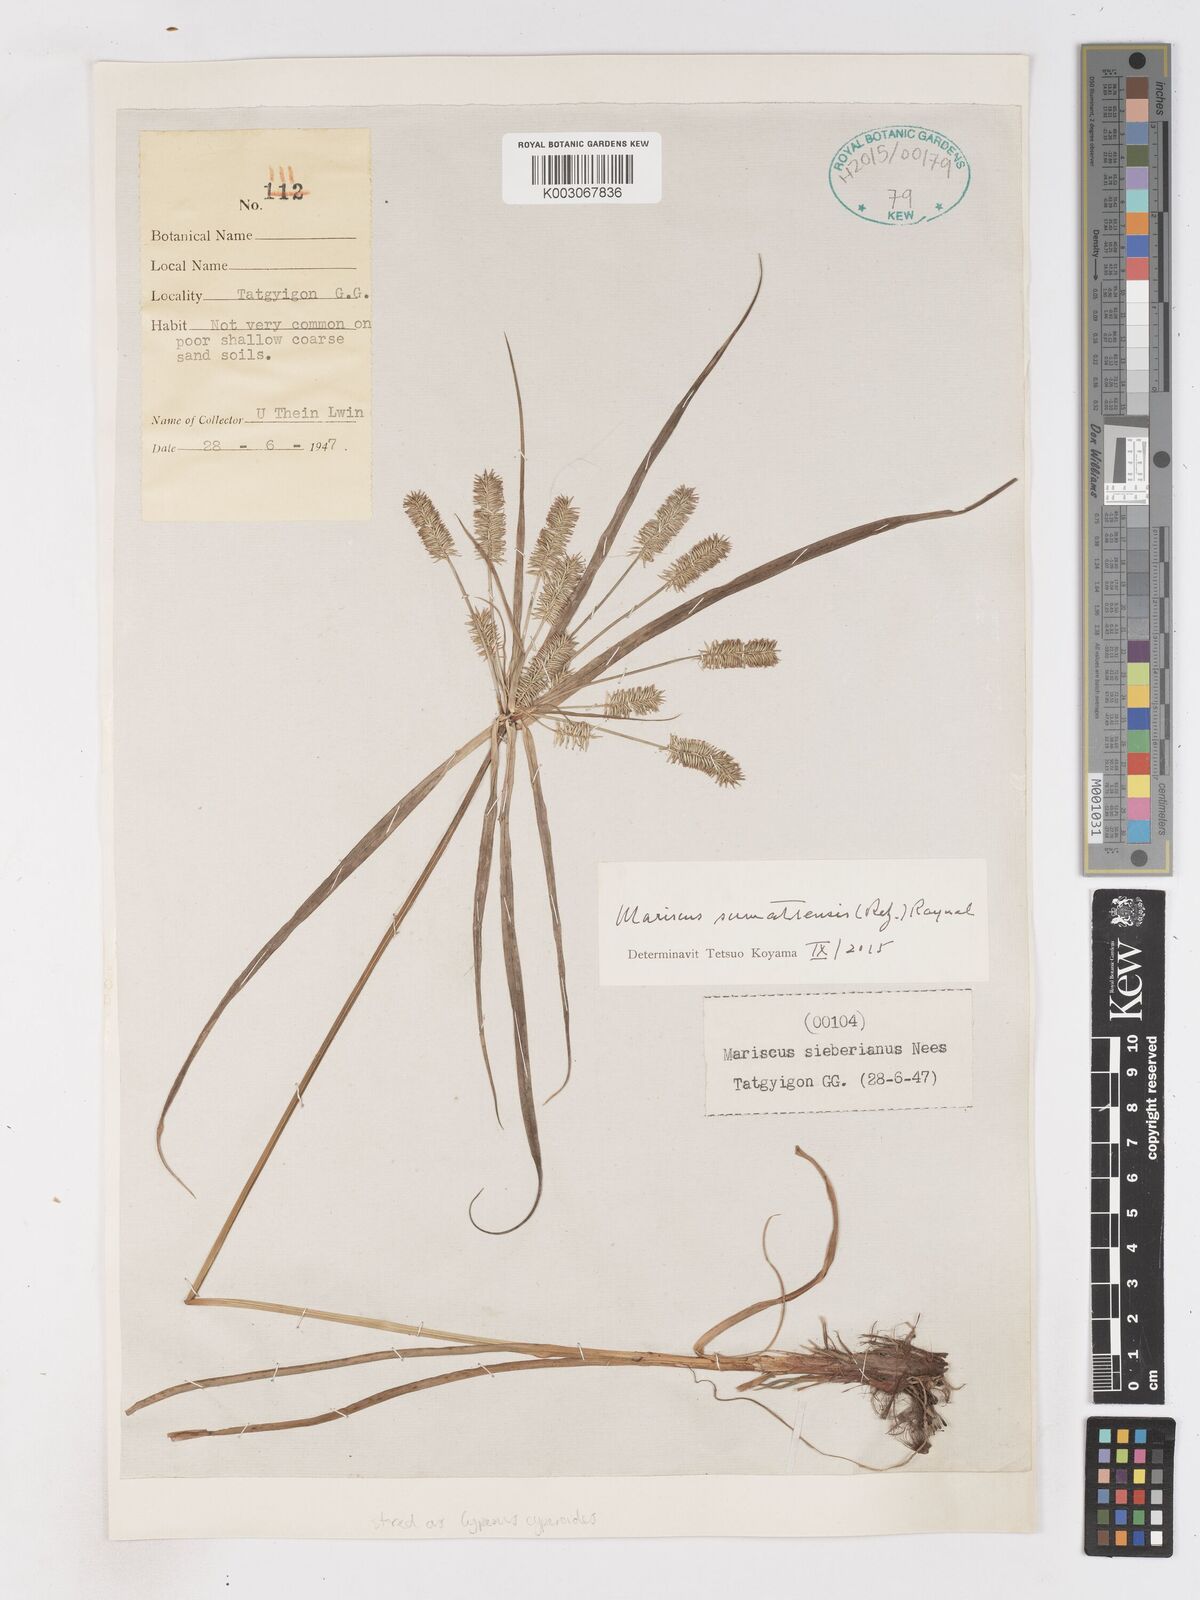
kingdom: Plantae
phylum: Tracheophyta
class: Liliopsida
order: Poales
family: Cyperaceae
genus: Cyperus
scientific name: Cyperus cyperoides
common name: Pacific island flat sedge
